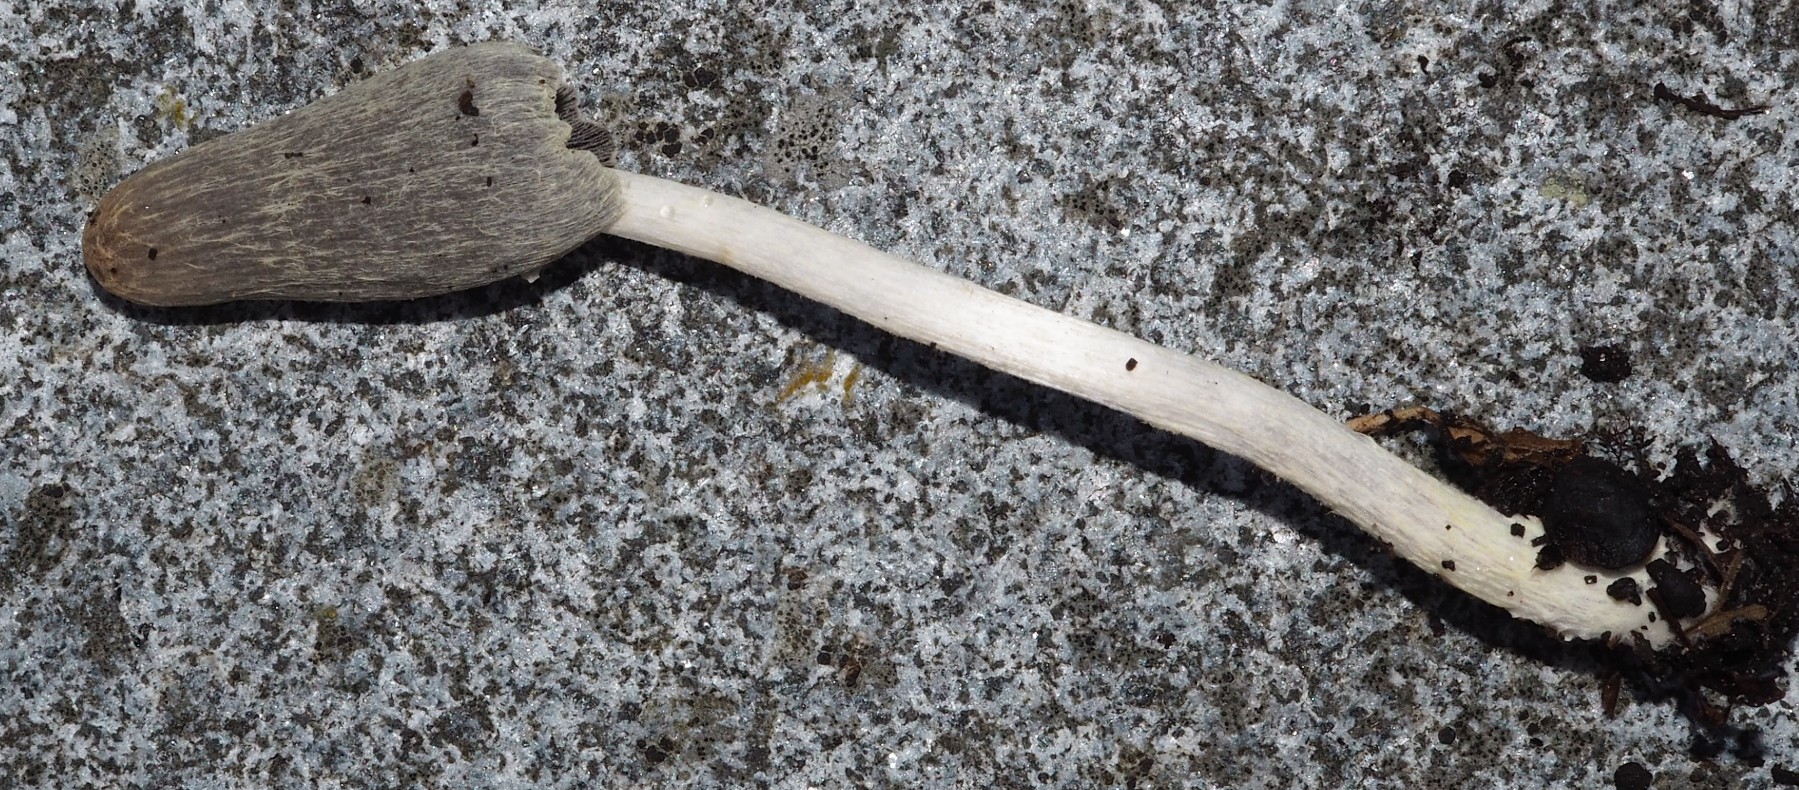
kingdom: Fungi
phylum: Basidiomycota
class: Agaricomycetes
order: Agaricales
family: Psathyrellaceae
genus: Coprinopsis
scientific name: Coprinopsis
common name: blækhat
